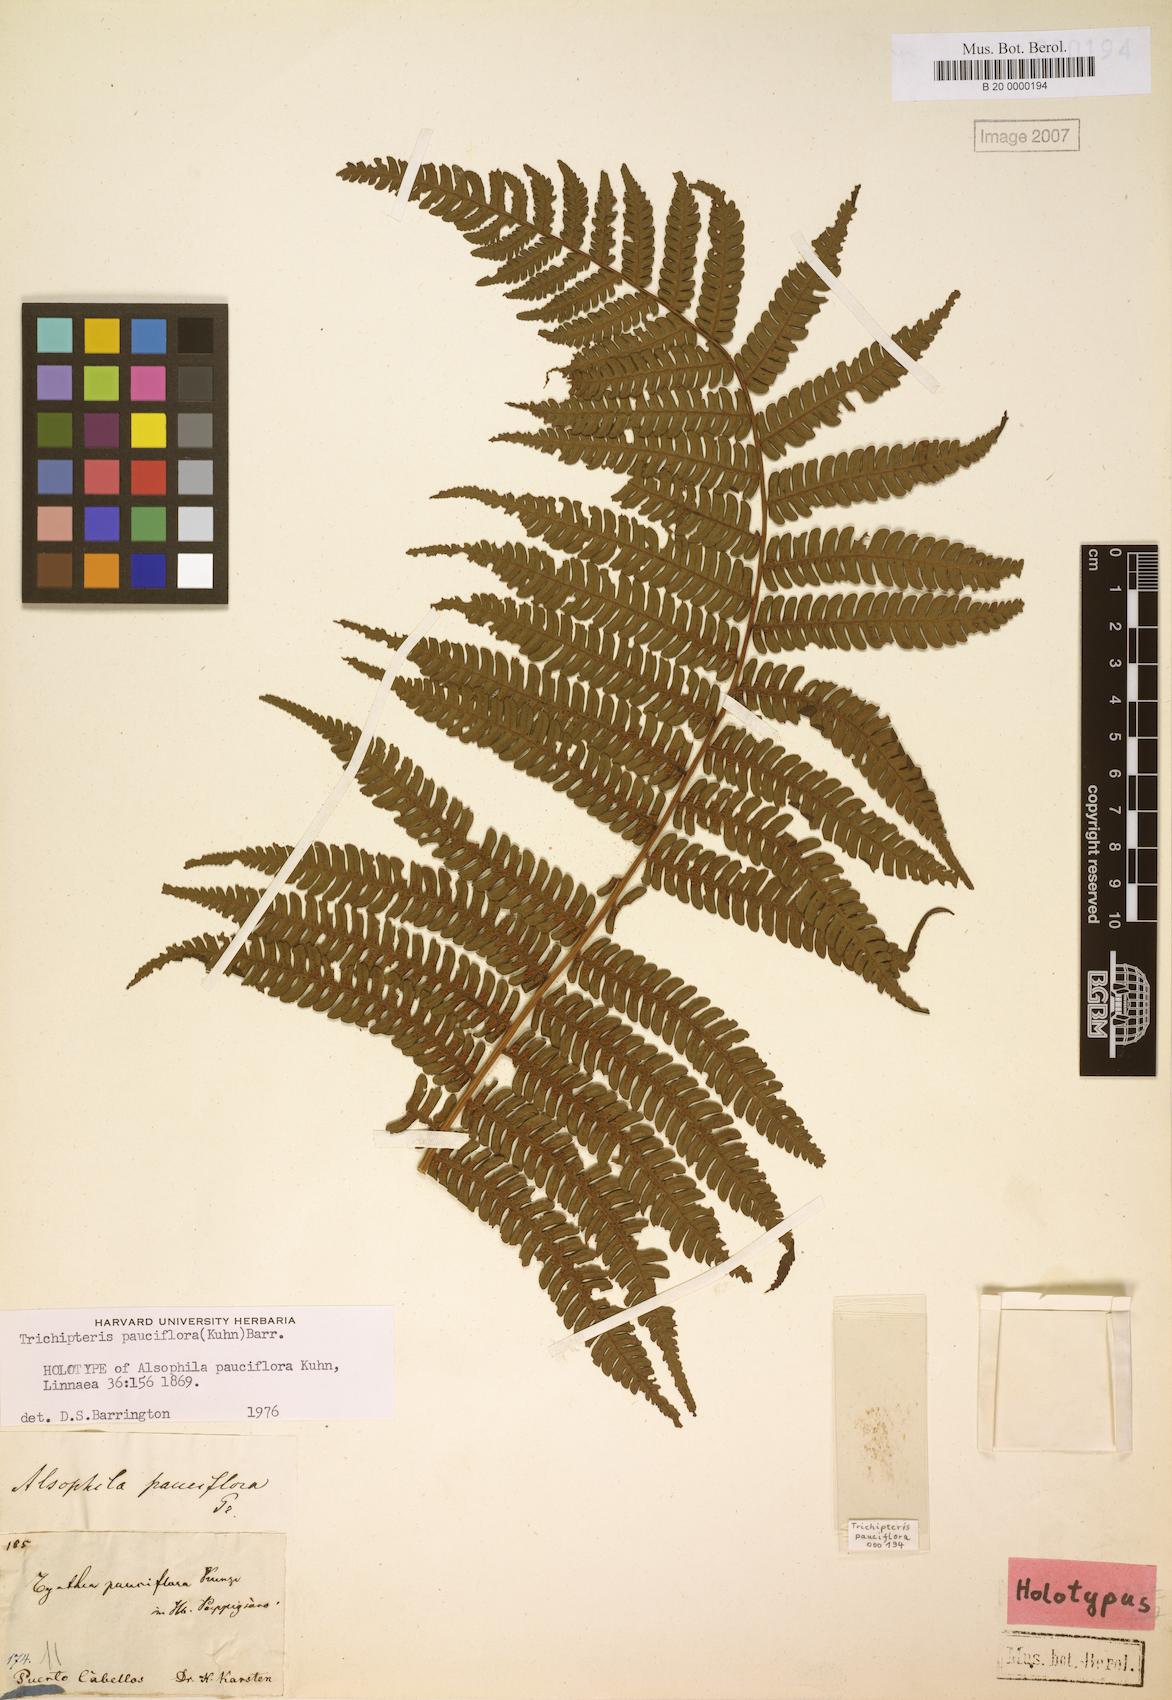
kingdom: Plantae
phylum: Tracheophyta
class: Polypodiopsida
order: Cyatheales
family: Cyatheaceae
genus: Cyathea
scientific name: Cyathea pauciflora
